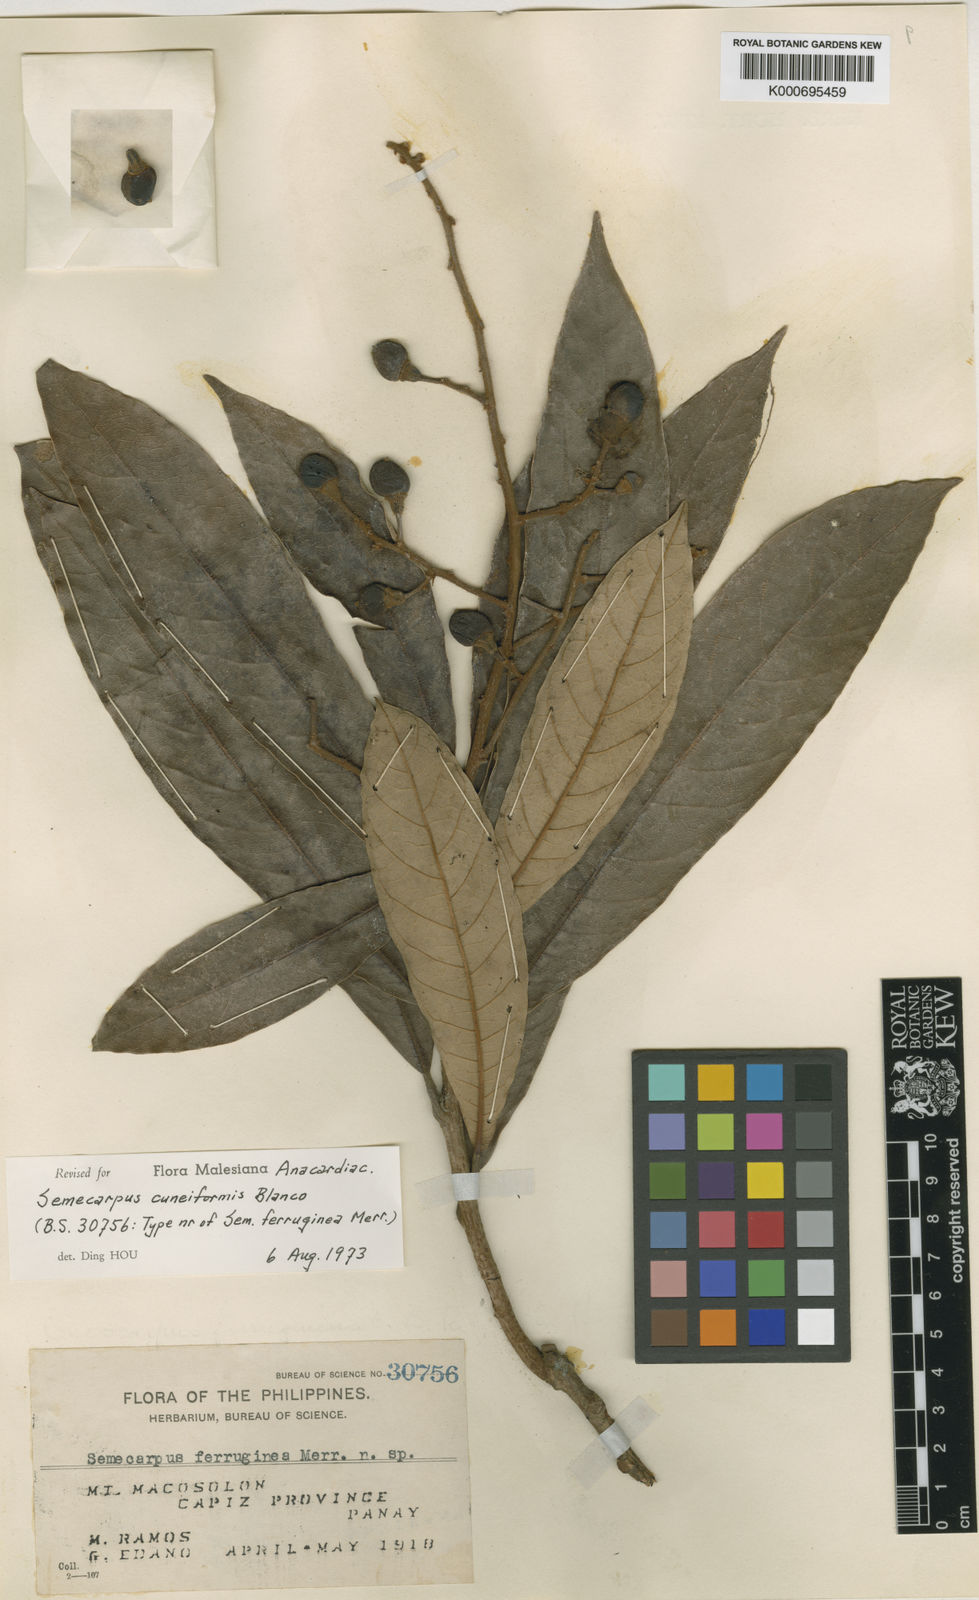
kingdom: Plantae
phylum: Tracheophyta
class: Magnoliopsida
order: Sapindales
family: Anacardiaceae
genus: Semecarpus
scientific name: Semecarpus cuneiformis
